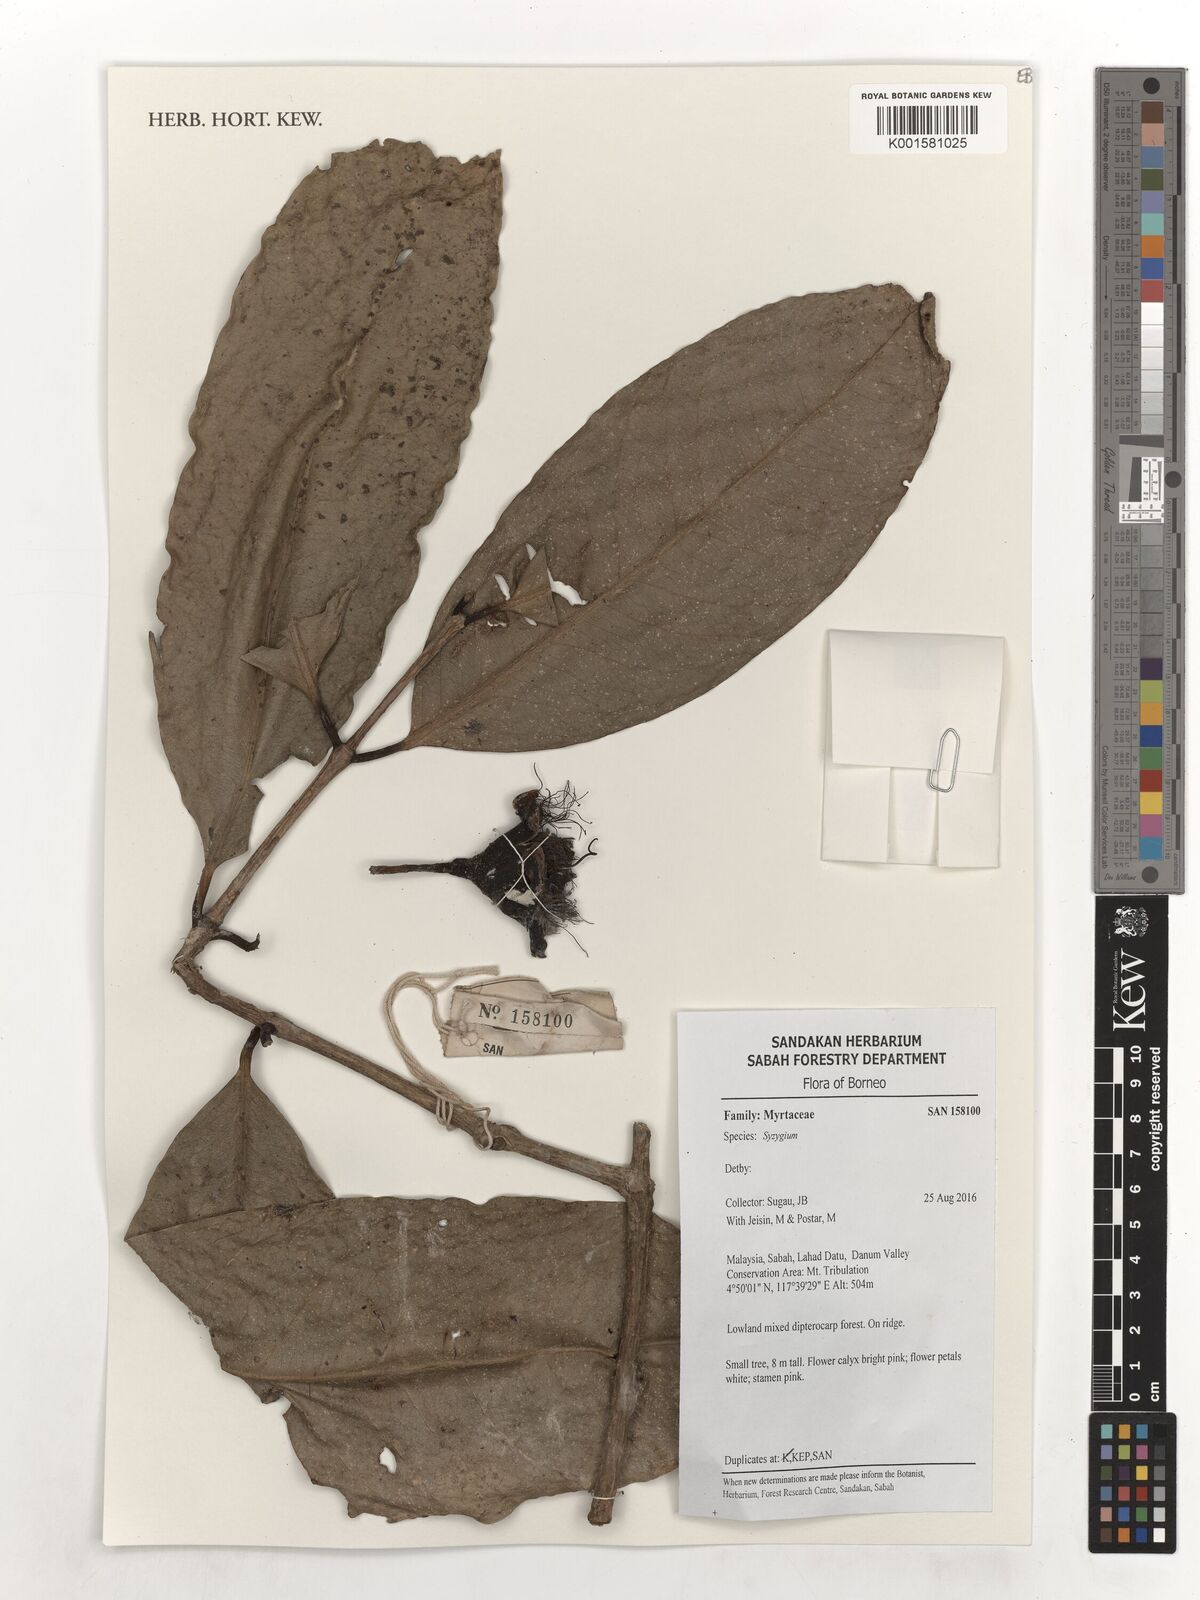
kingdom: Plantae
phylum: Tracheophyta
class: Magnoliopsida
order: Myrtales
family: Myrtaceae
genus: Syzygium
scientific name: Syzygium
